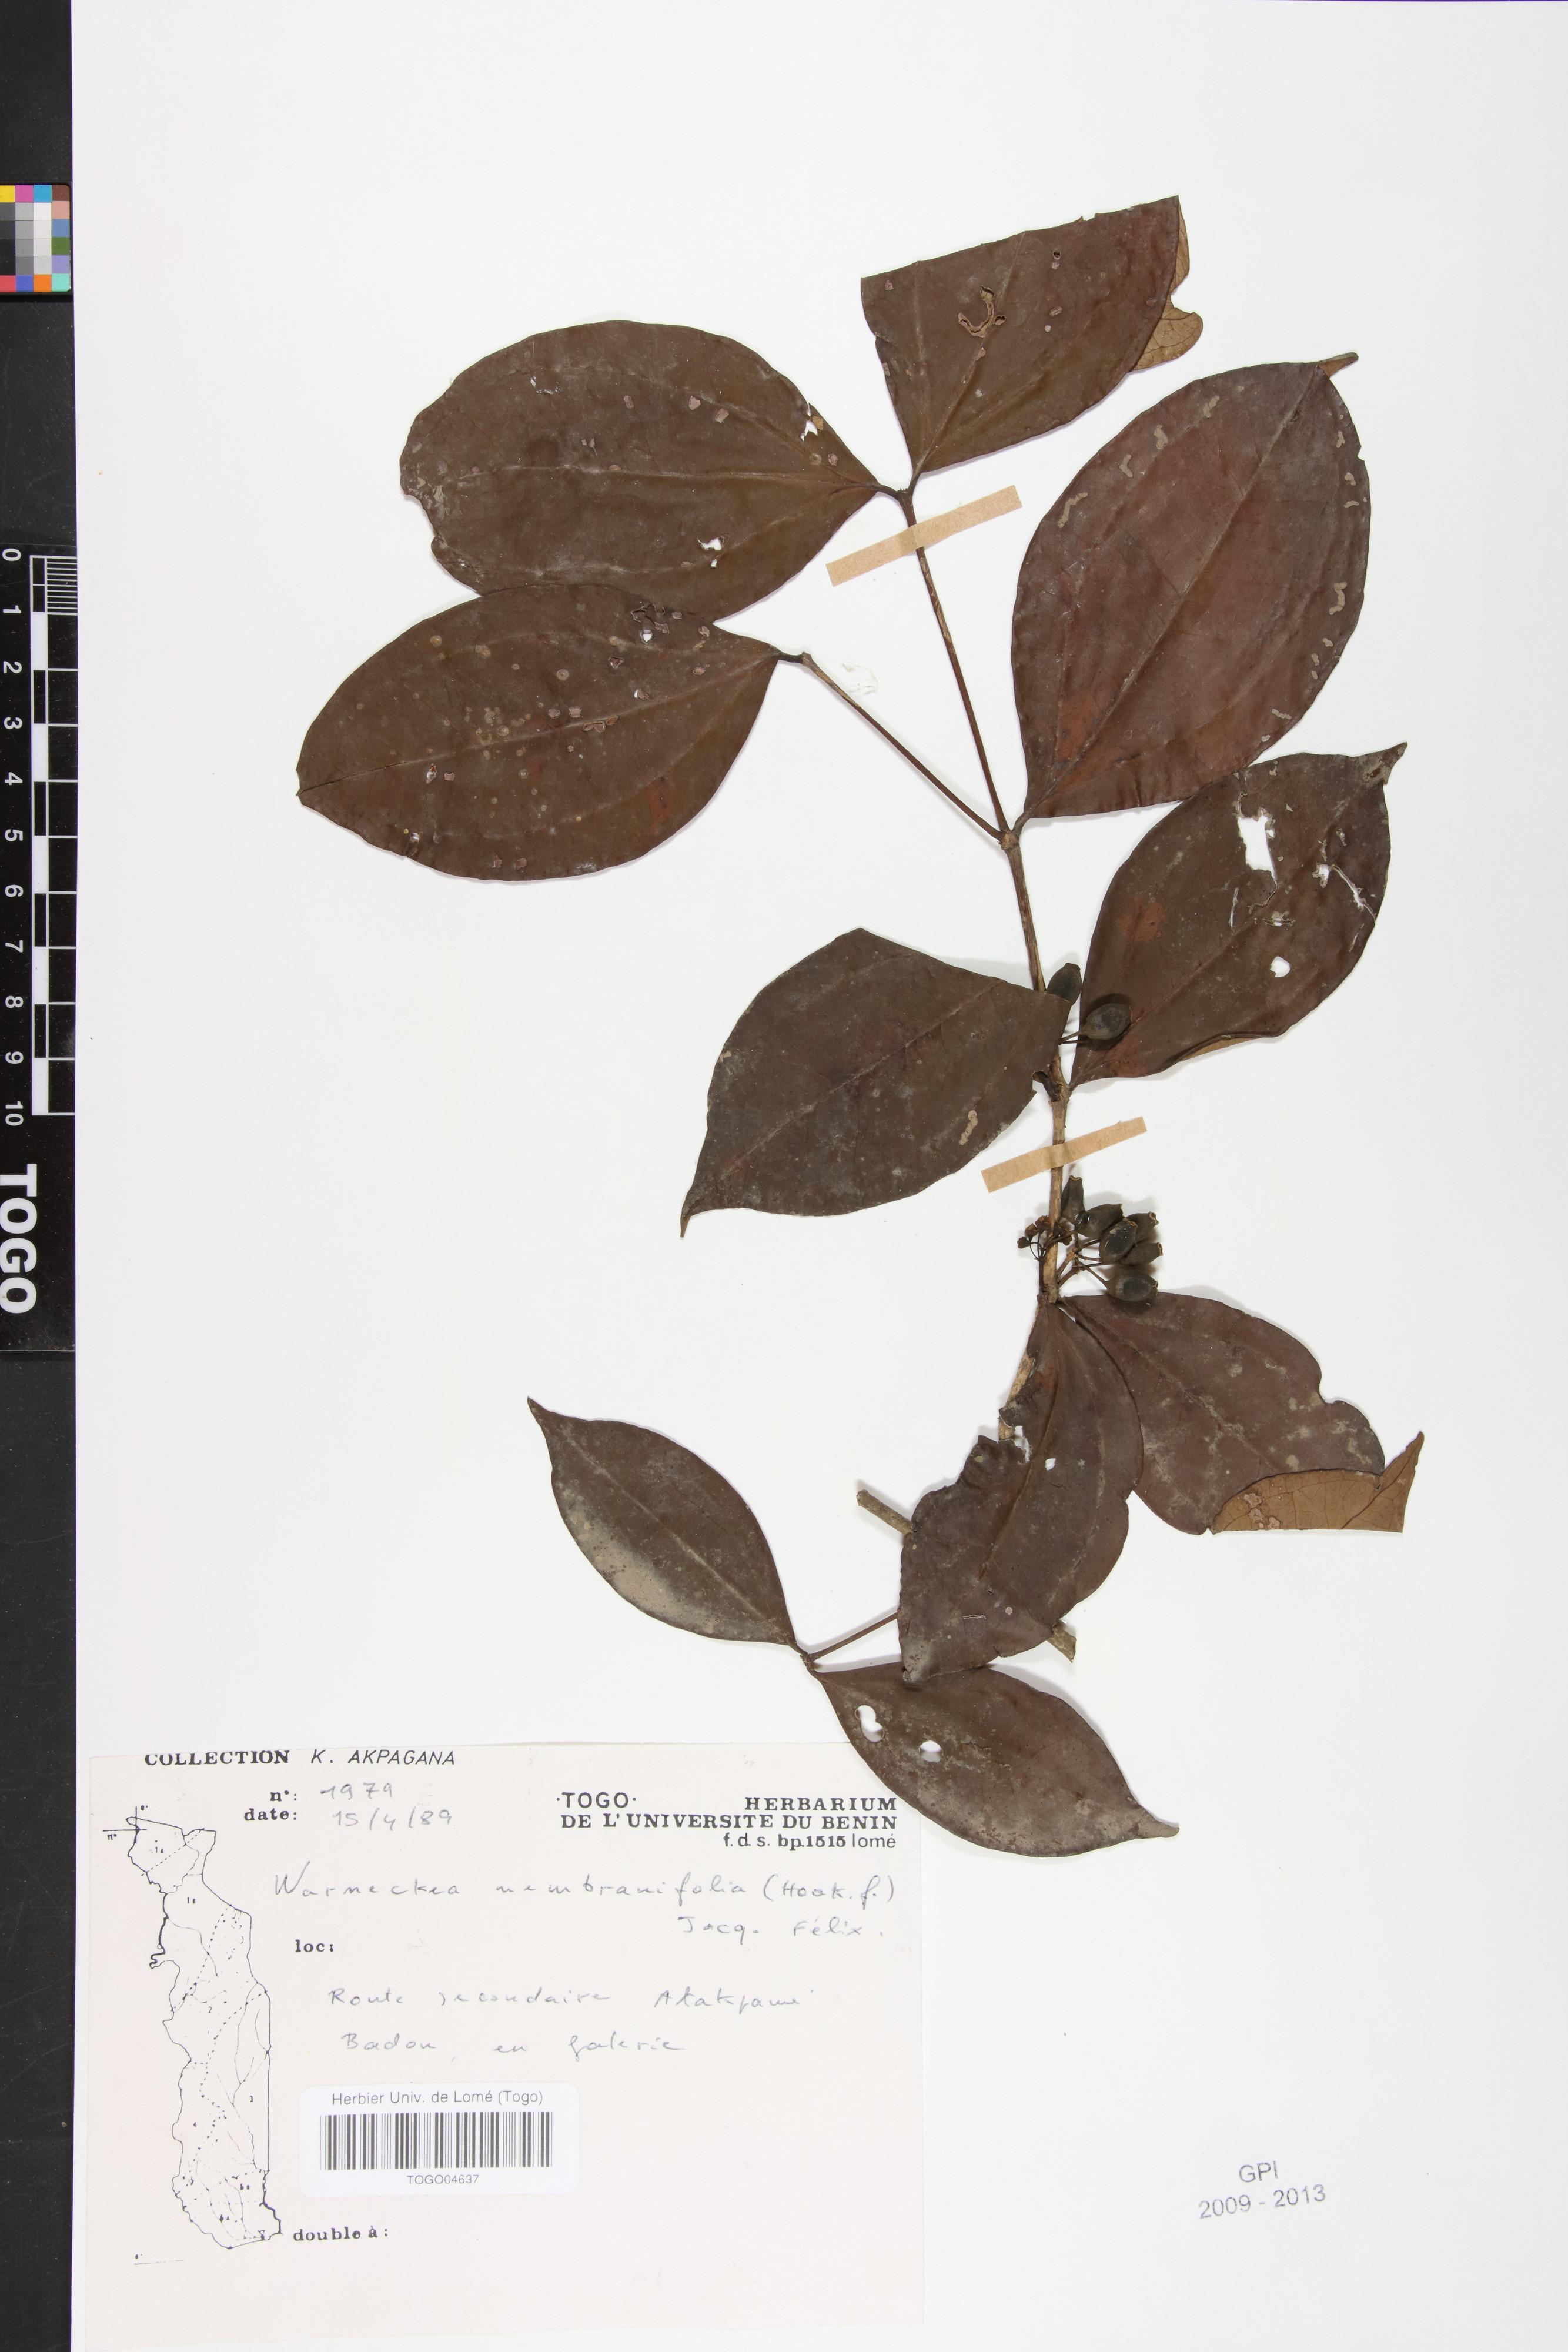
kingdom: Plantae
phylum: Tracheophyta
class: Magnoliopsida
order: Myrtales
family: Melastomataceae
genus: Warneckea
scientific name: Warneckea membranifolia
